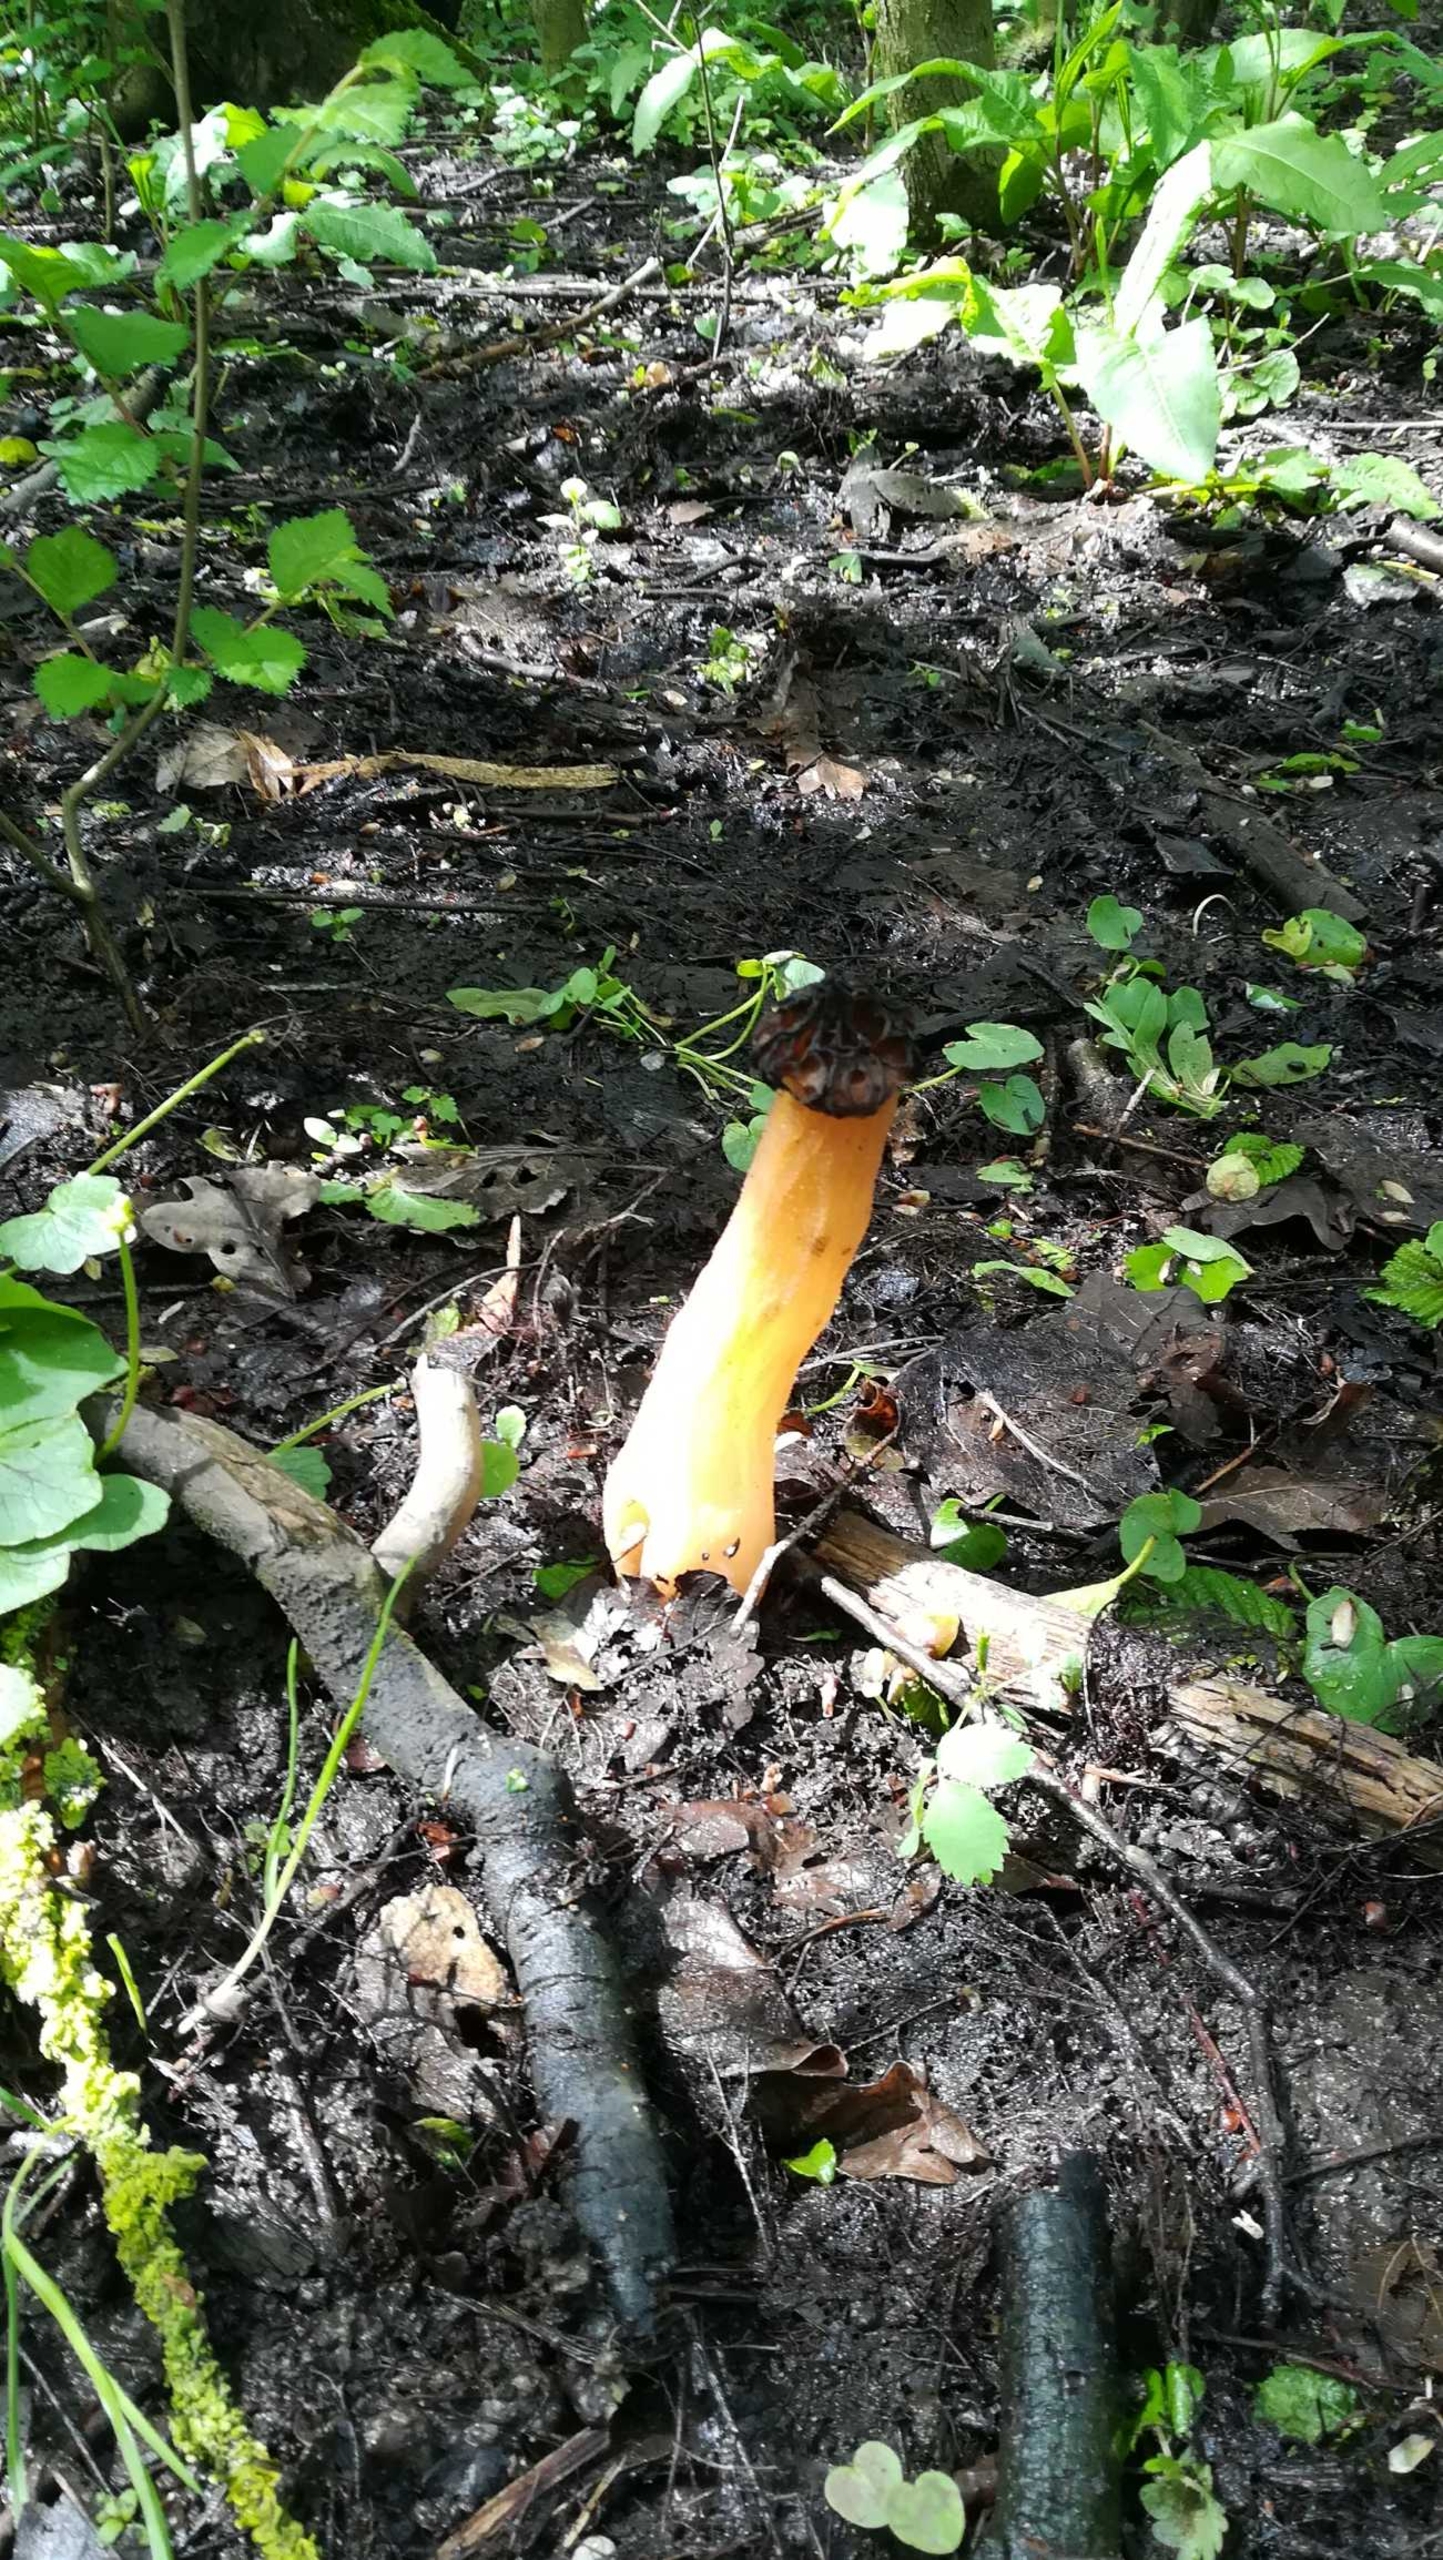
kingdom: Fungi
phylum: Ascomycota
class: Pezizomycetes
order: Pezizales
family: Morchellaceae
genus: Morchella
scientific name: Morchella semilibera
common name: Hætte-morkel
